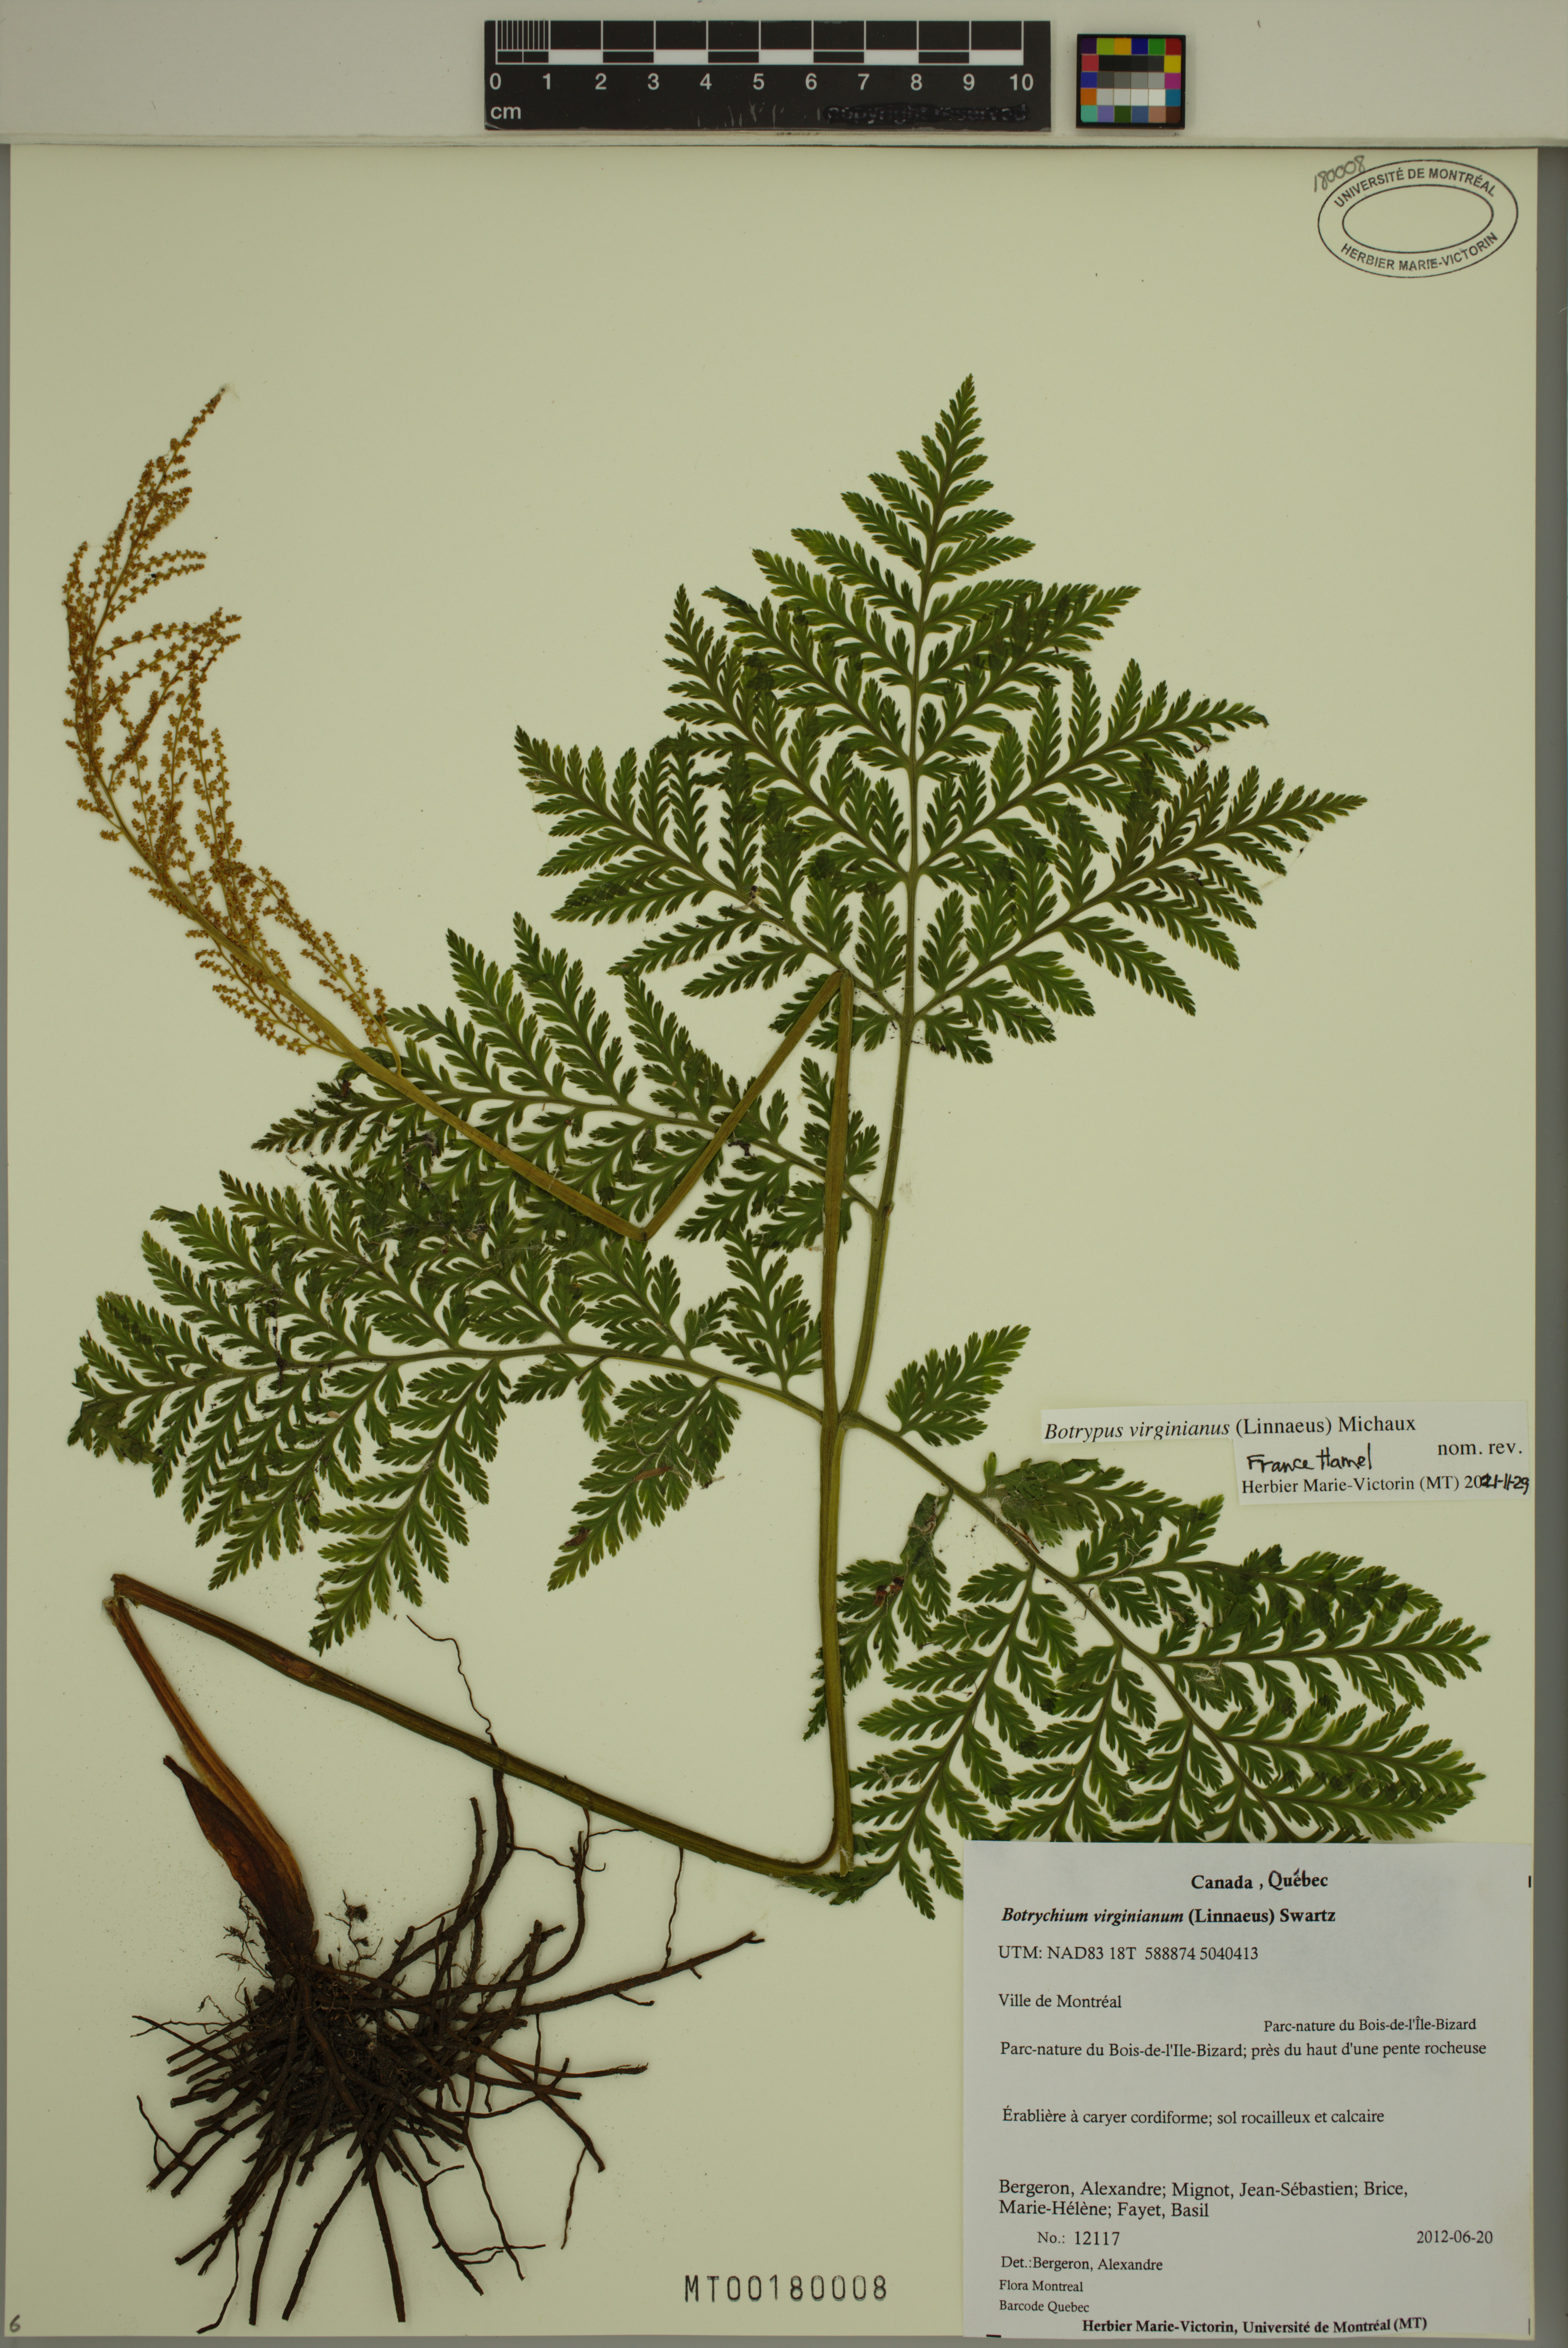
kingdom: Plantae
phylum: Tracheophyta
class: Polypodiopsida
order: Ophioglossales
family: Ophioglossaceae
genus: Botrypus
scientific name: Botrypus virginianus
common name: Common grapefern
